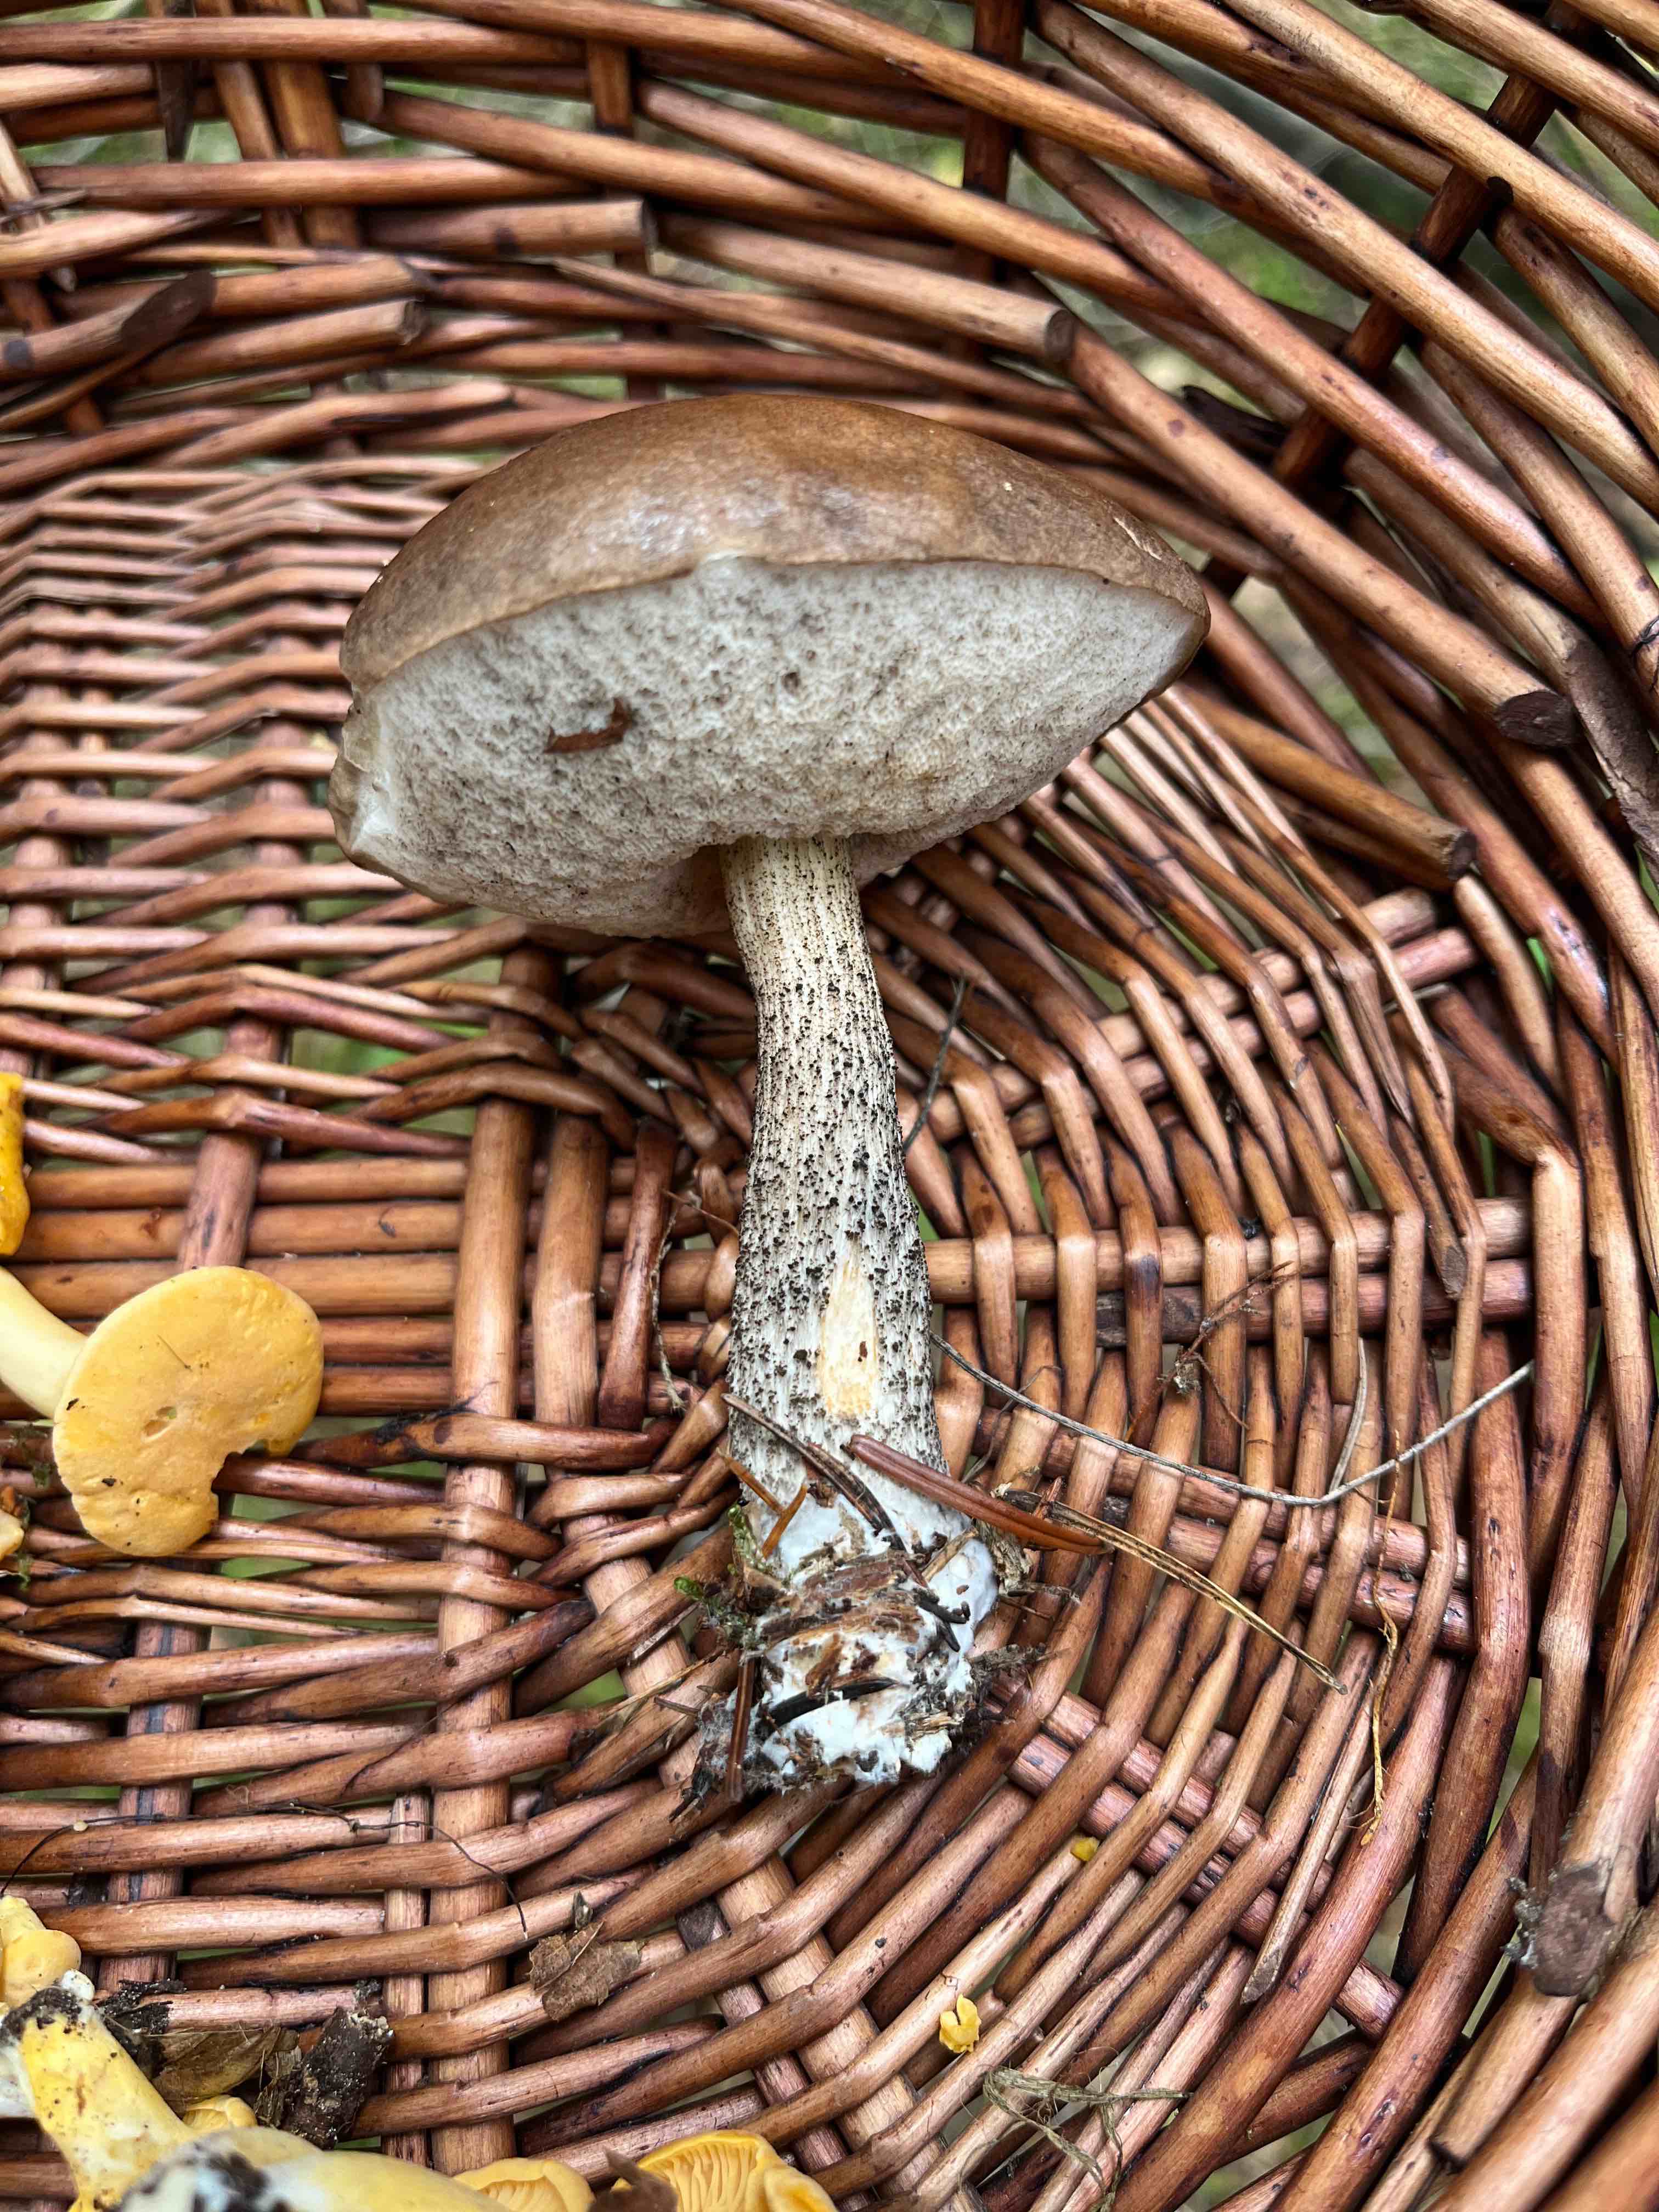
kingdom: Fungi
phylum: Basidiomycota
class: Agaricomycetes
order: Boletales
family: Boletaceae
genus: Leccinum
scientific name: Leccinum scabrum
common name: brun skælrørhat
